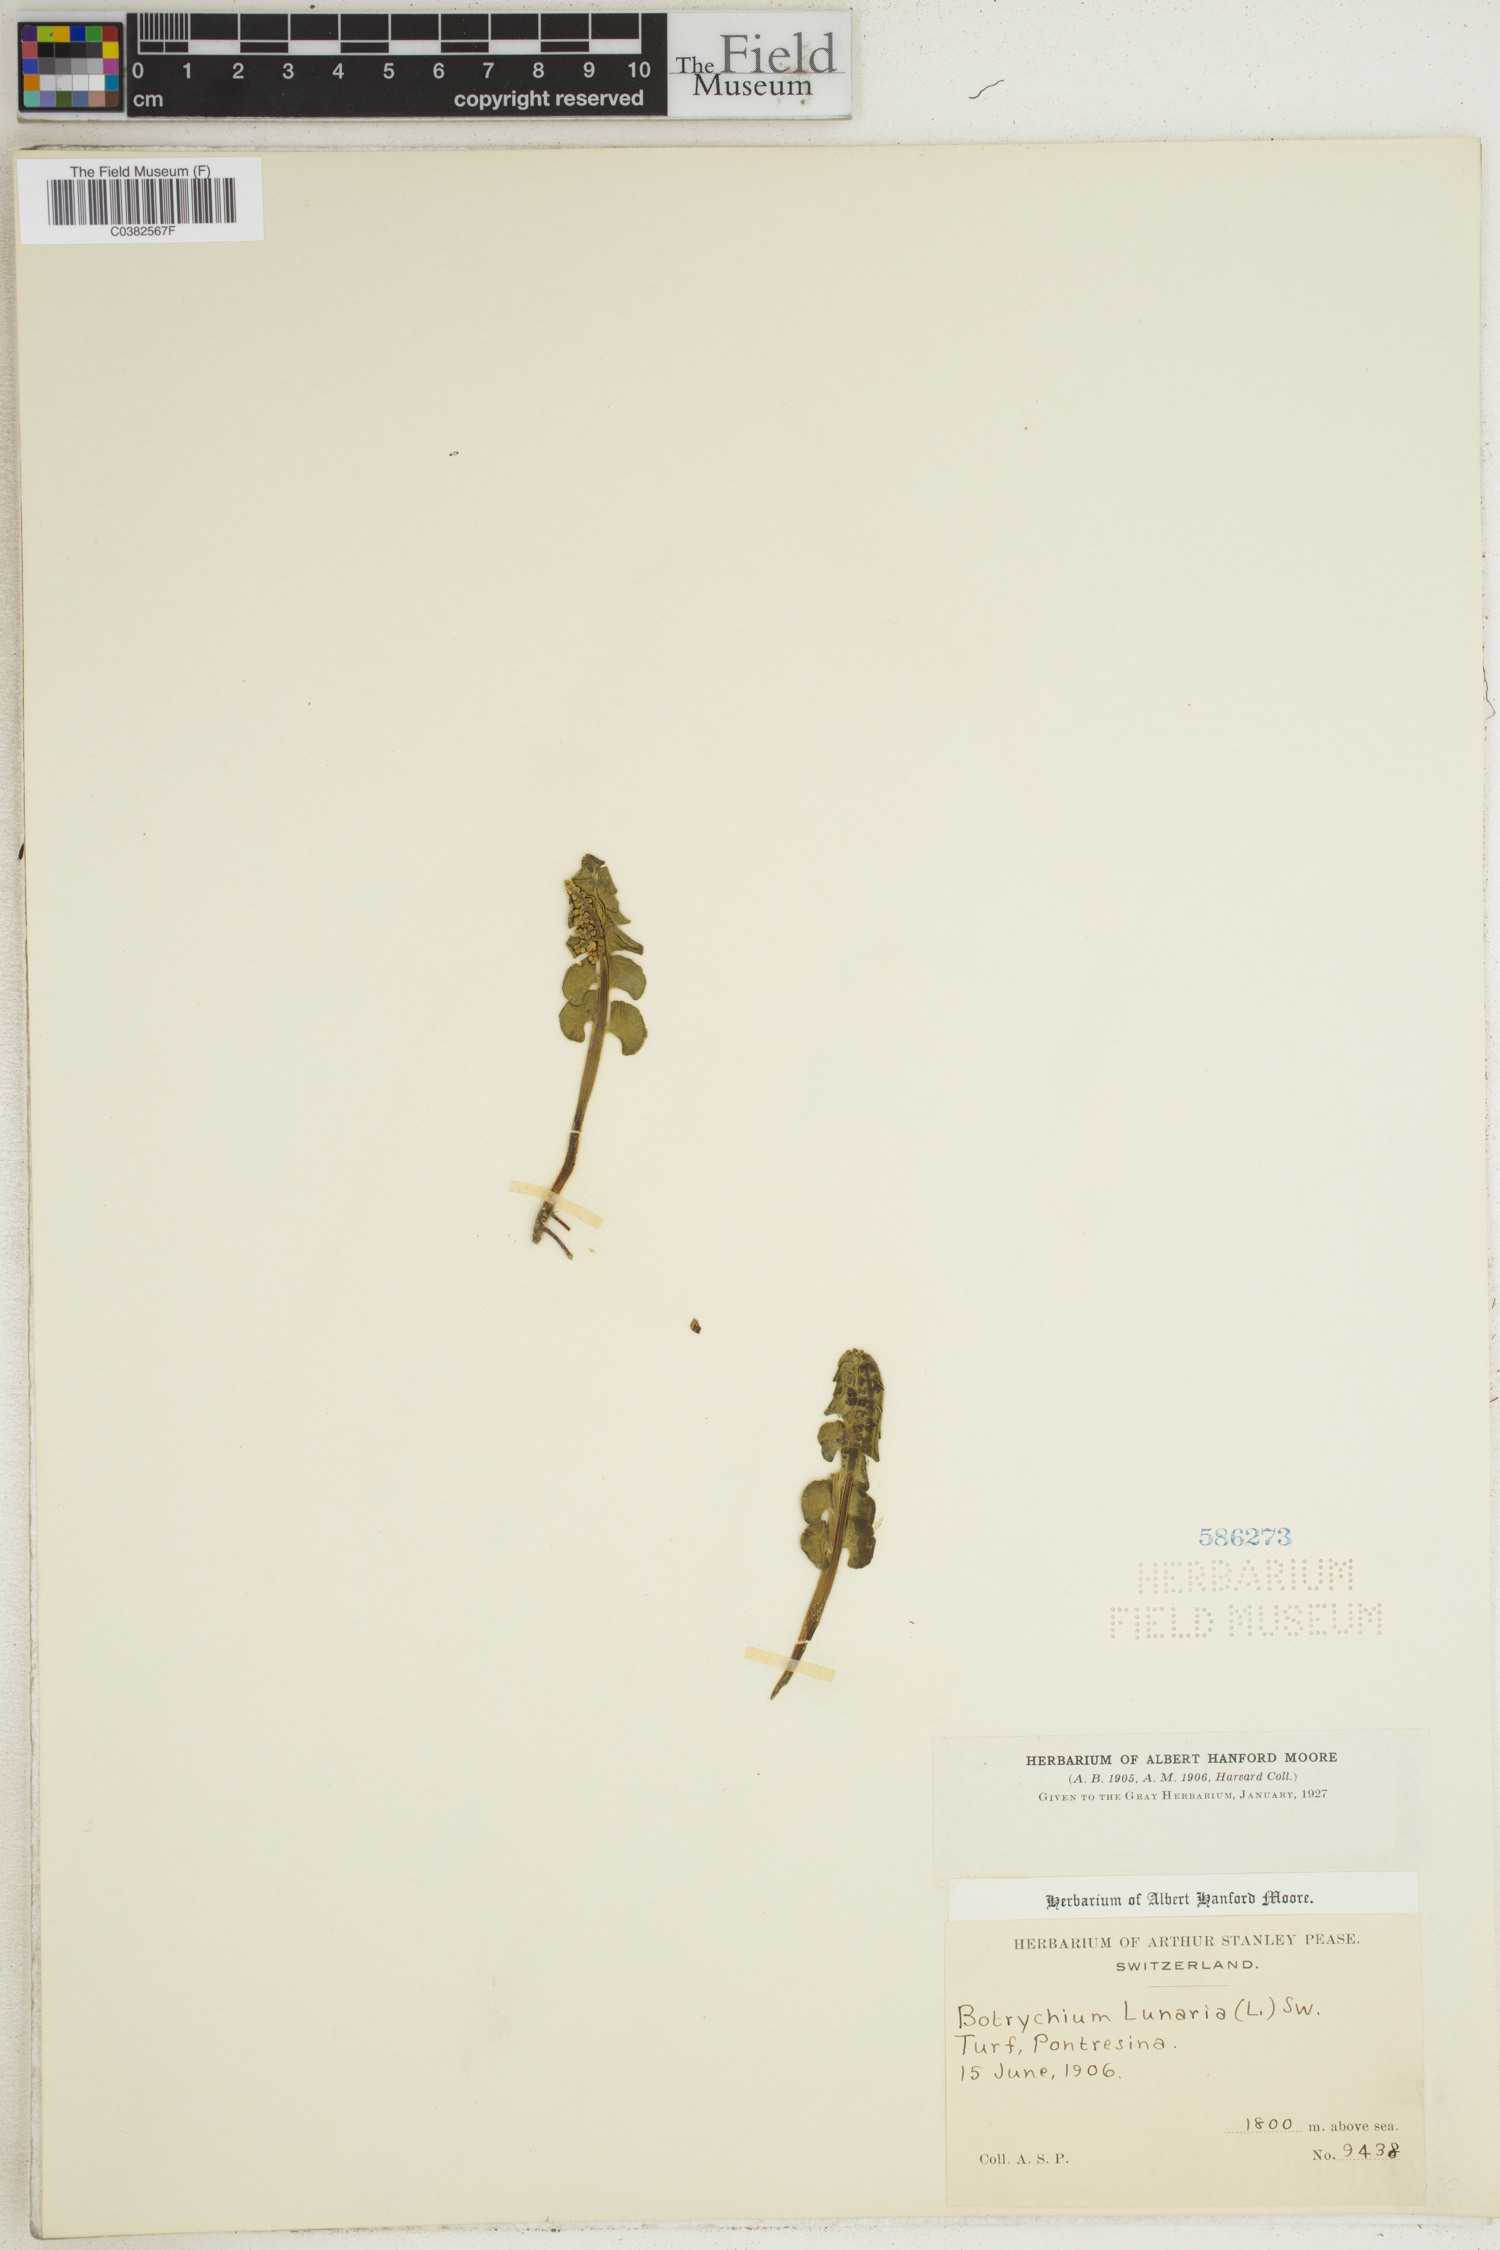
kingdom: Plantae
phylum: Tracheophyta
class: Polypodiopsida
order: Ophioglossales
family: Ophioglossaceae
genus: Botrychium
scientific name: Botrychium lunaria
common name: Moonwort
